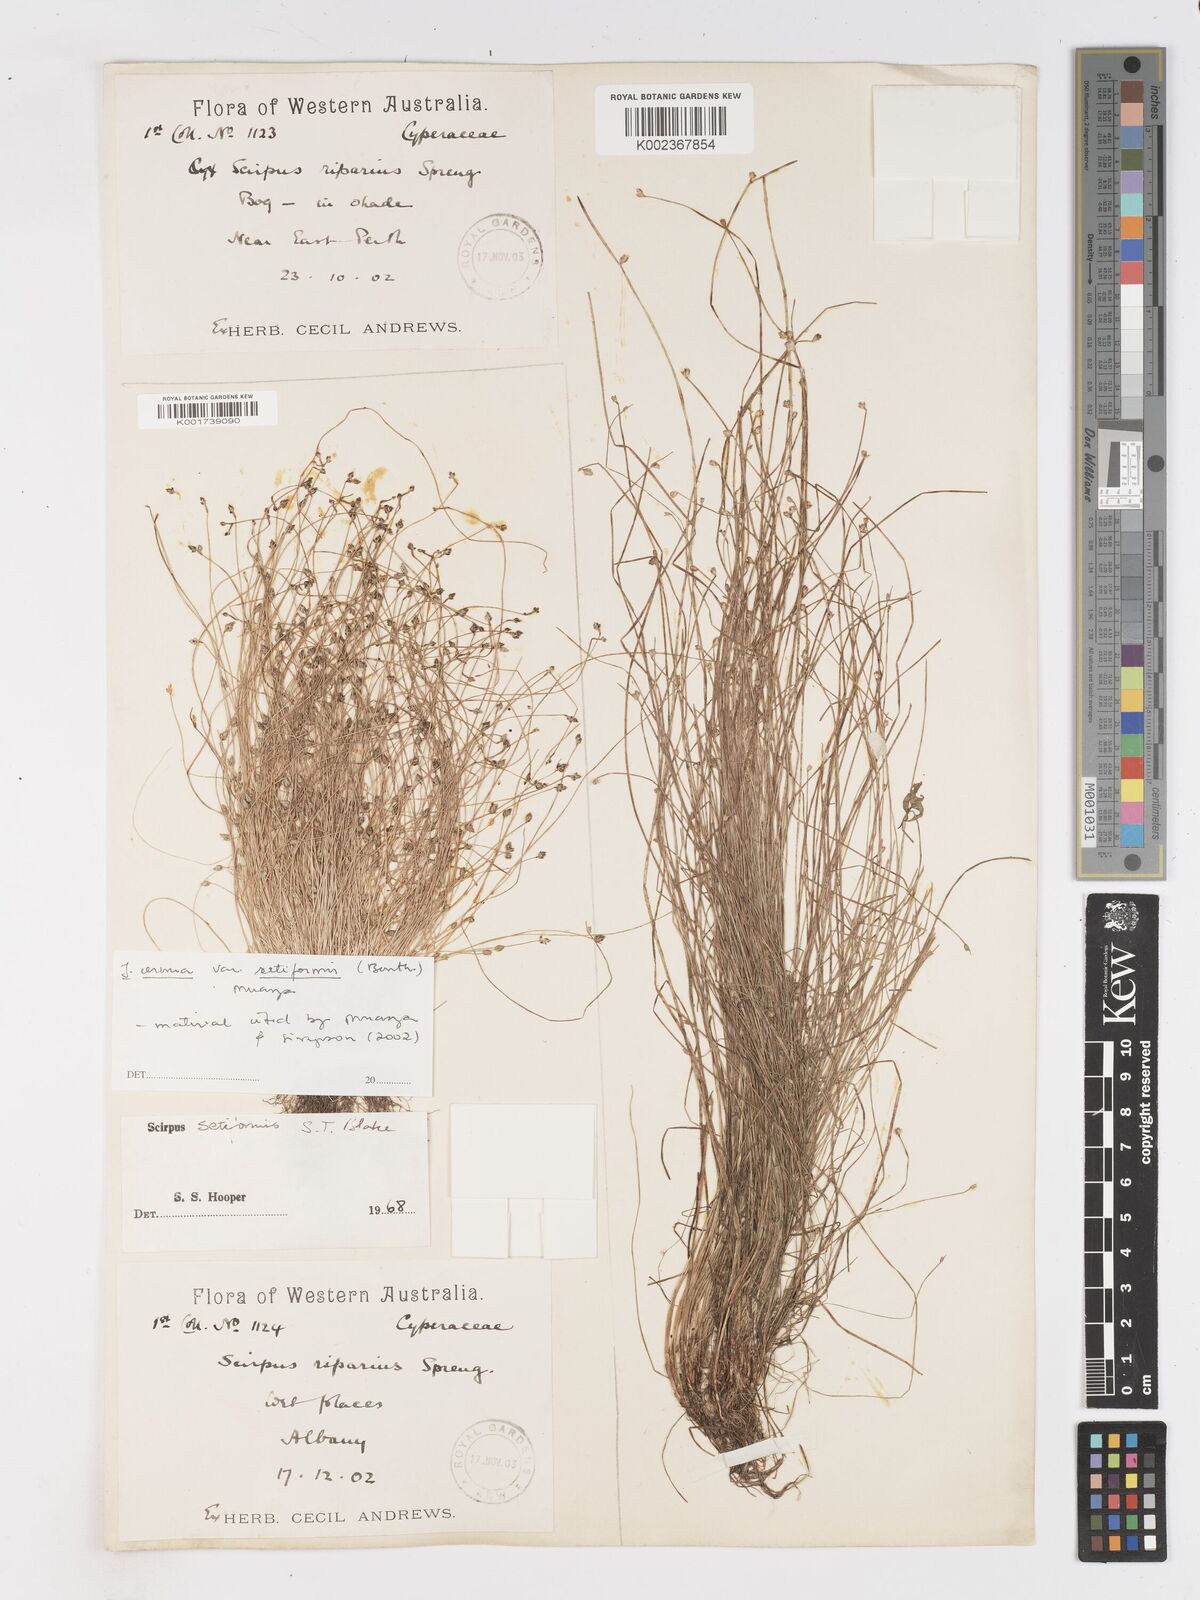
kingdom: Plantae
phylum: Tracheophyta
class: Liliopsida
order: Poales
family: Cyperaceae
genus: Isolepis
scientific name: Isolepis cernua
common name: Slender club-rush
